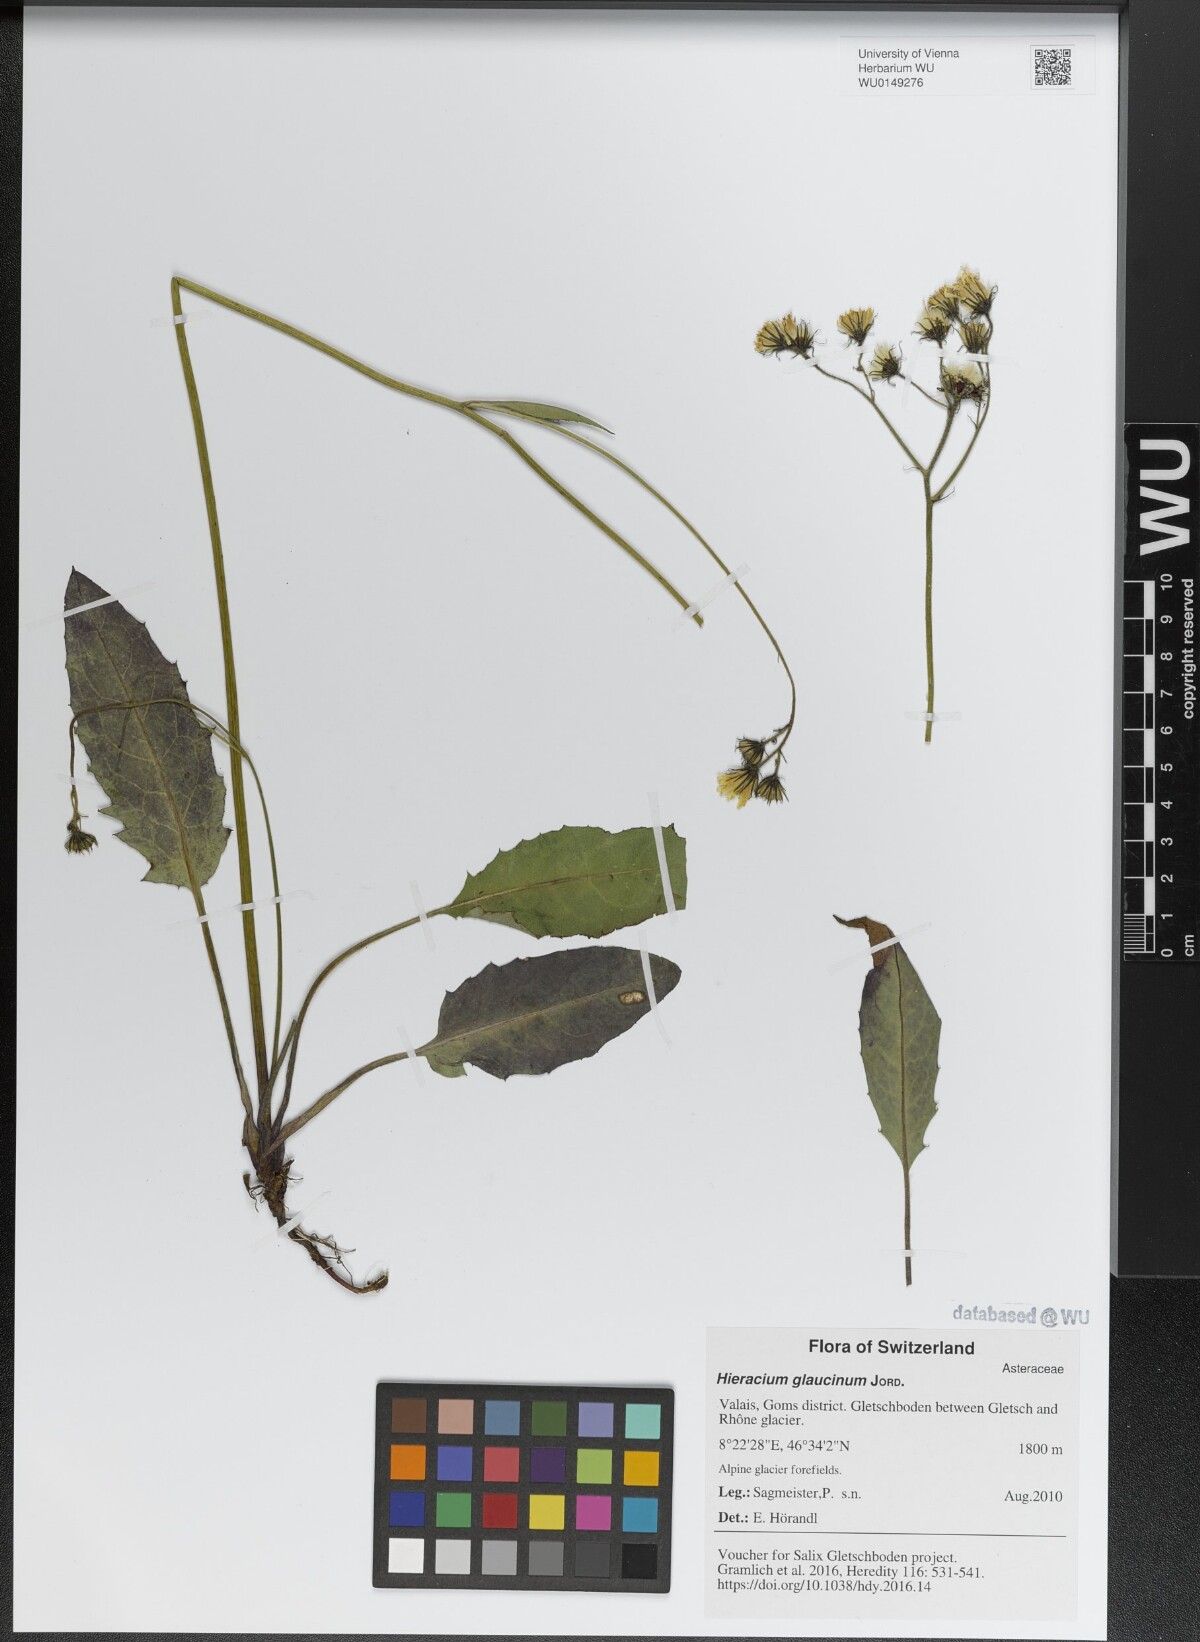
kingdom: Plantae
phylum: Tracheophyta
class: Magnoliopsida
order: Asterales
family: Asteraceae
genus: Hieracium
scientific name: Hieracium glaucinum
